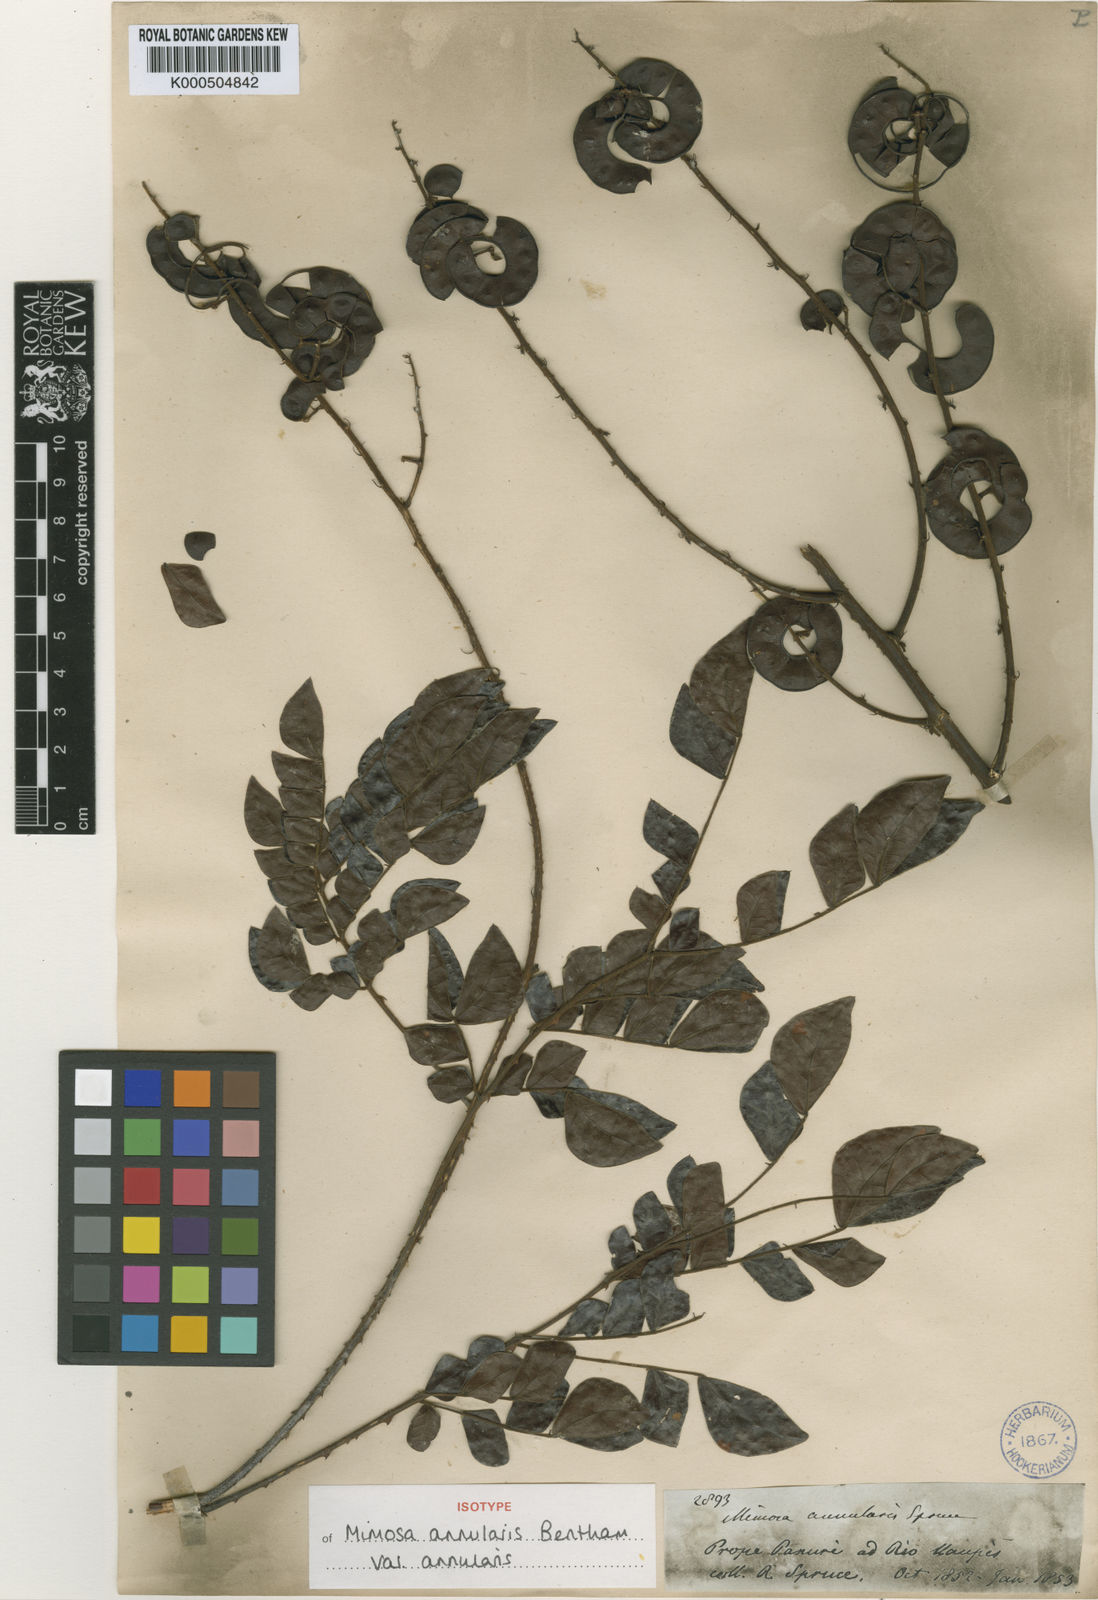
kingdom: Plantae
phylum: Tracheophyta
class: Magnoliopsida
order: Fabales
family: Fabaceae
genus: Mimosa
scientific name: Mimosa annularis
